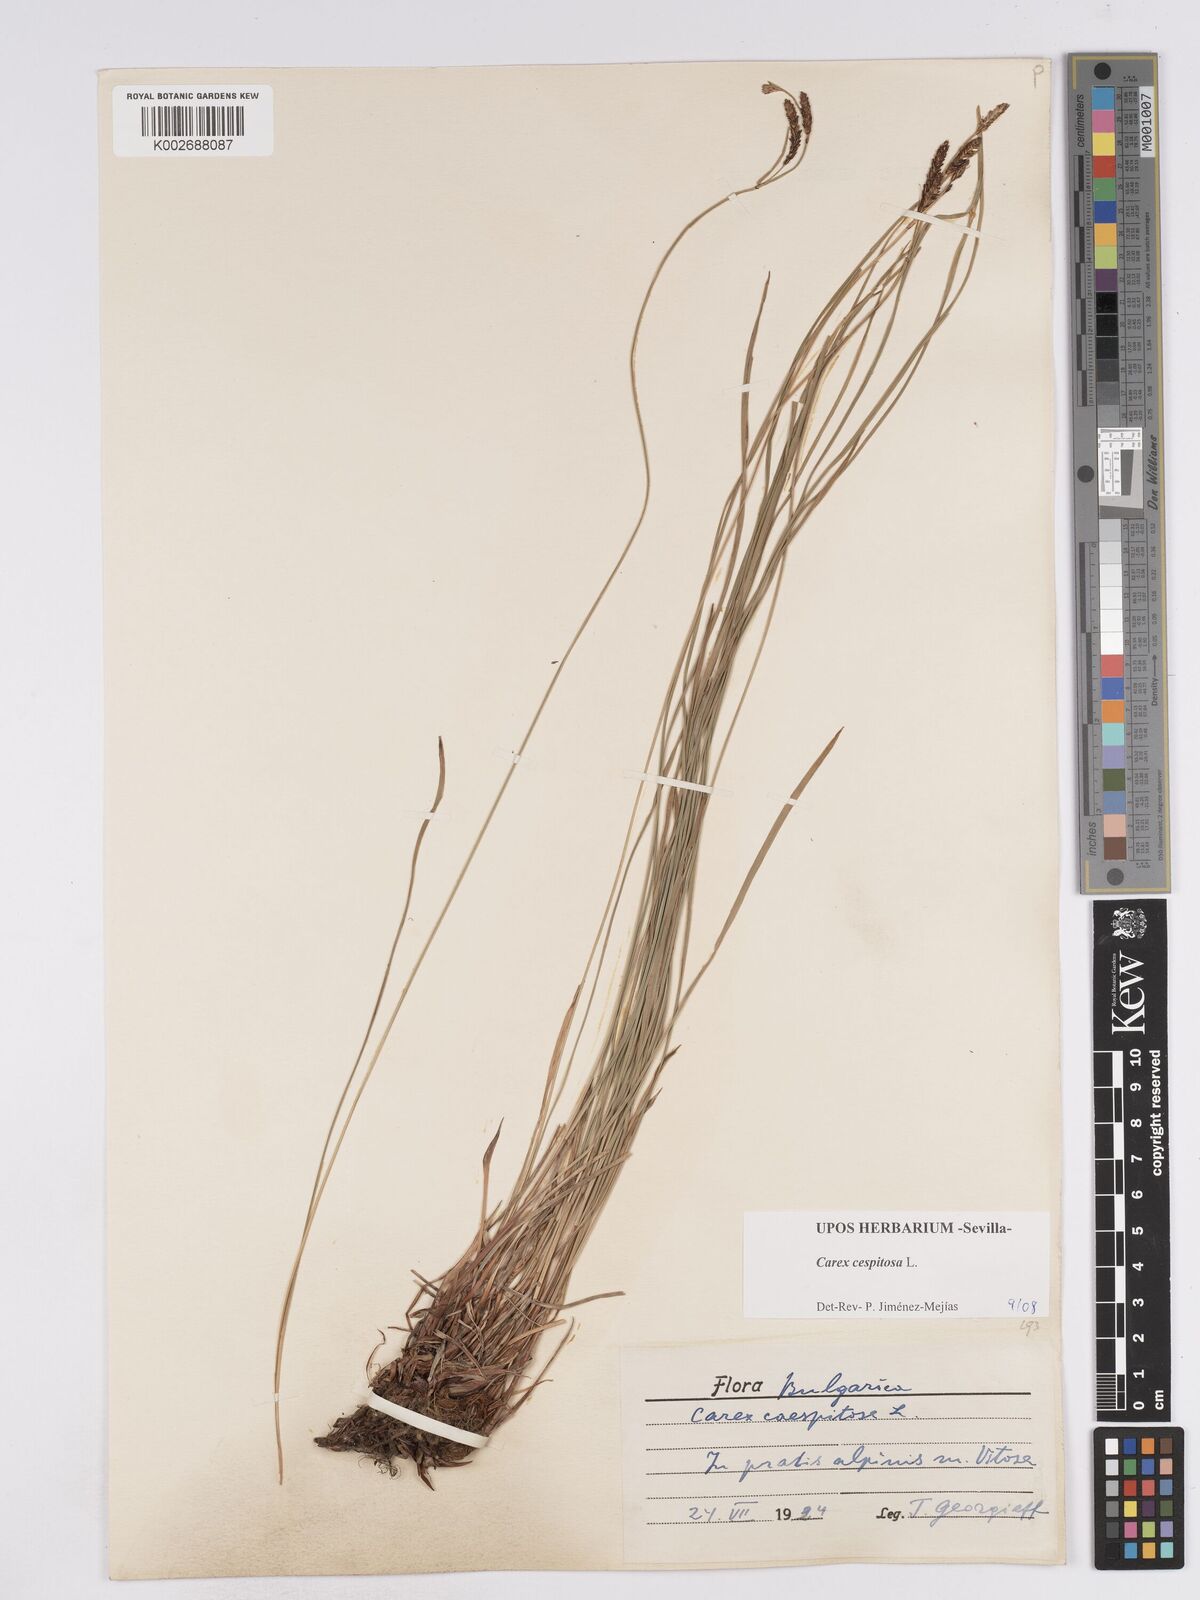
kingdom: Plantae
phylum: Tracheophyta
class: Liliopsida
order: Poales
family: Cyperaceae
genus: Carex
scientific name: Carex
